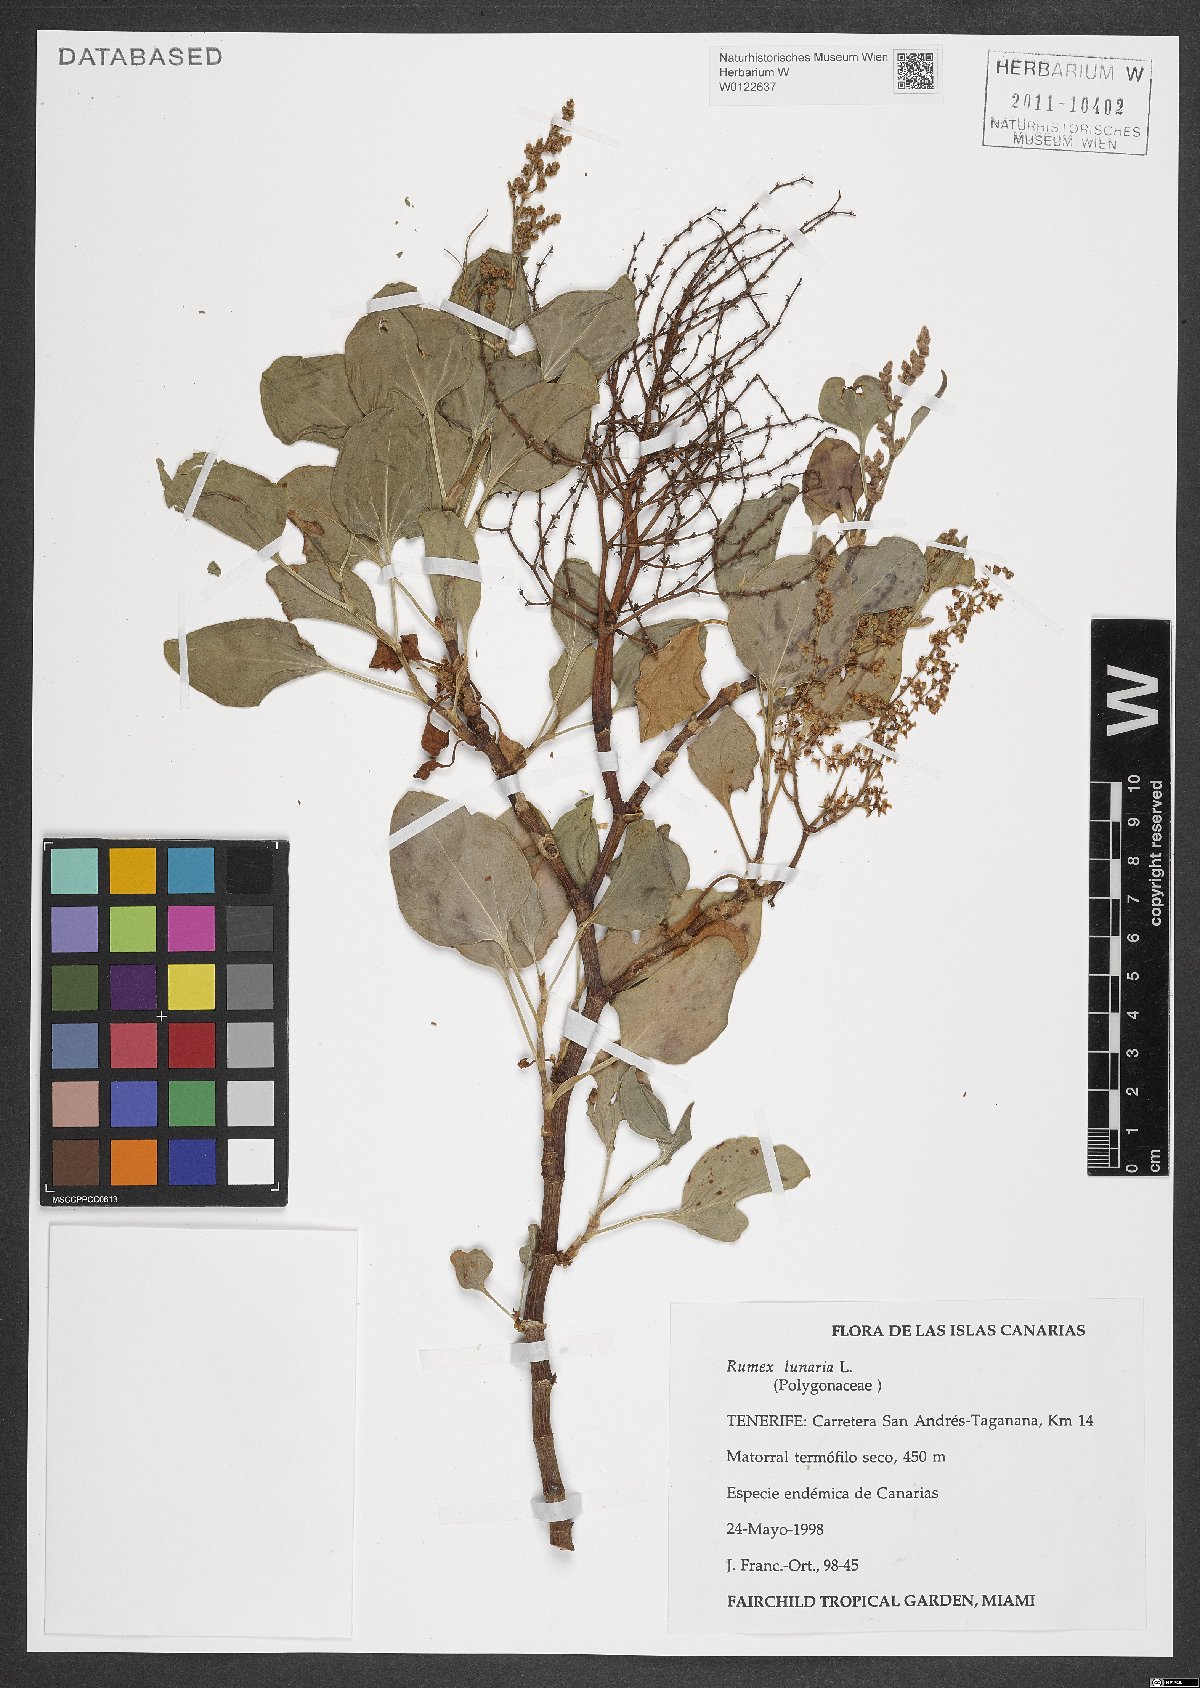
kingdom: Plantae
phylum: Tracheophyta
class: Magnoliopsida
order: Caryophyllales
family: Polygonaceae
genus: Rumex
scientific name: Rumex lunaria
